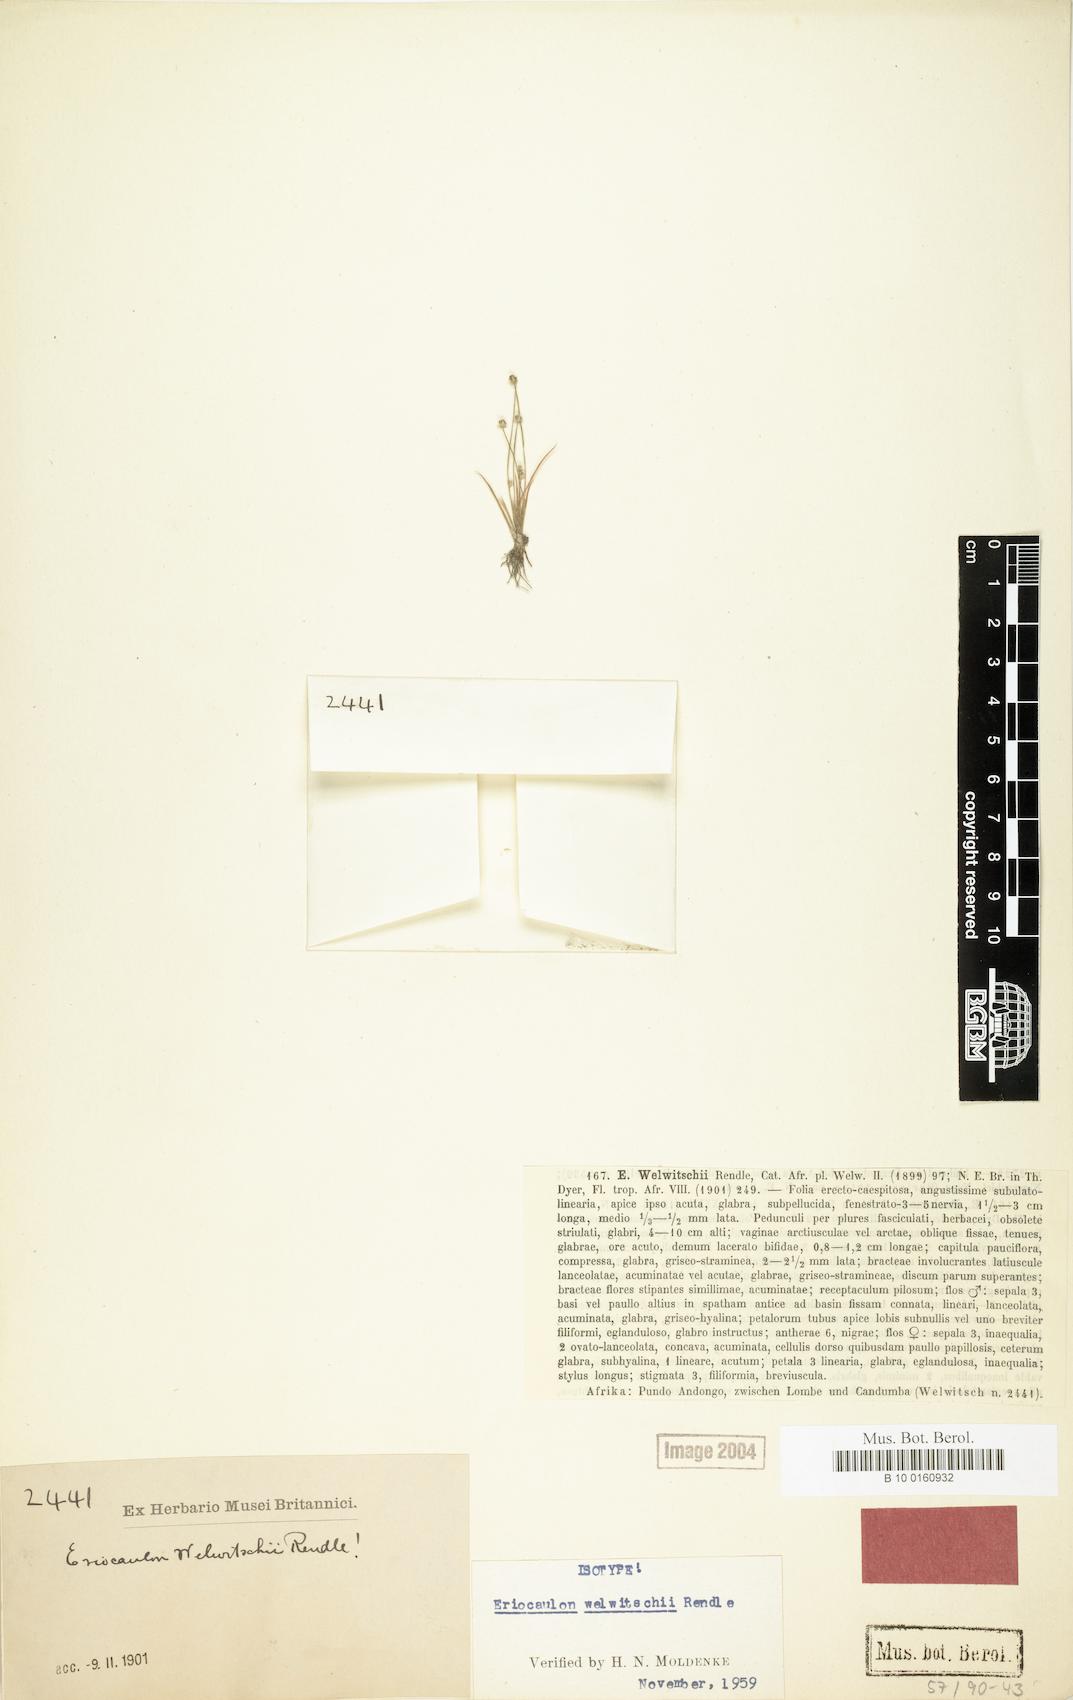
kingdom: Plantae
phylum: Tracheophyta
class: Liliopsida
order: Poales
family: Eriocaulaceae
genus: Eriocaulon
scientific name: Eriocaulon welwitschii
